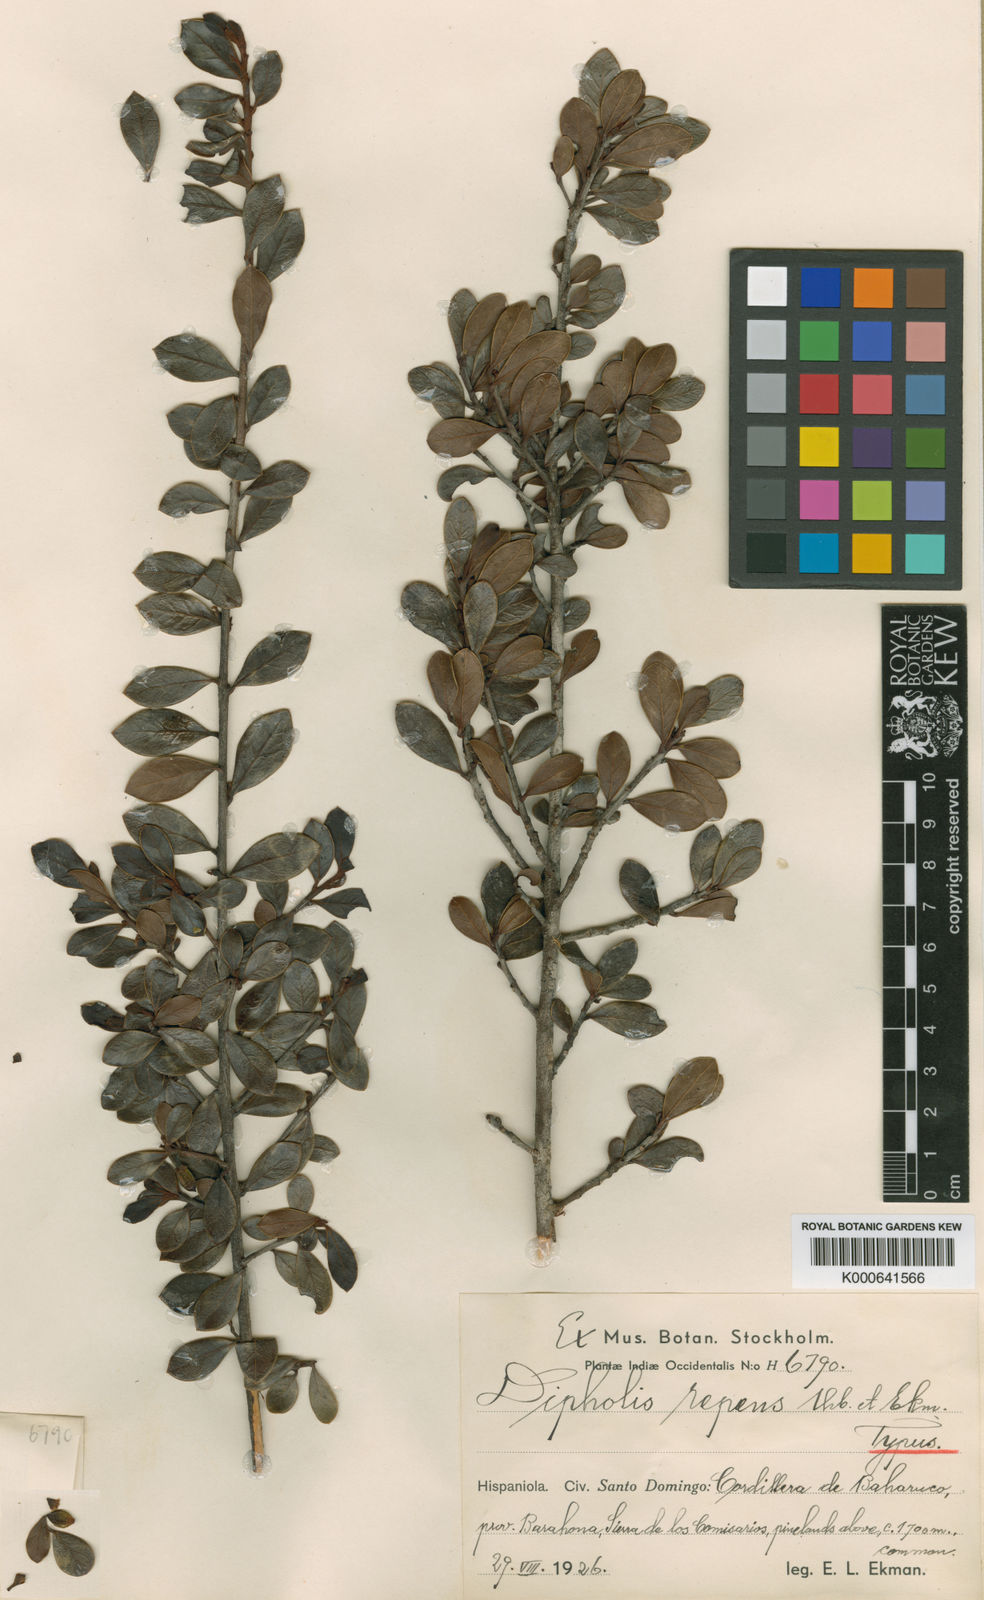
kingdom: Plantae
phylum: Tracheophyta
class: Magnoliopsida
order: Ericales
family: Sapotaceae
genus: Sideroxylon
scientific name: Sideroxylon repens
